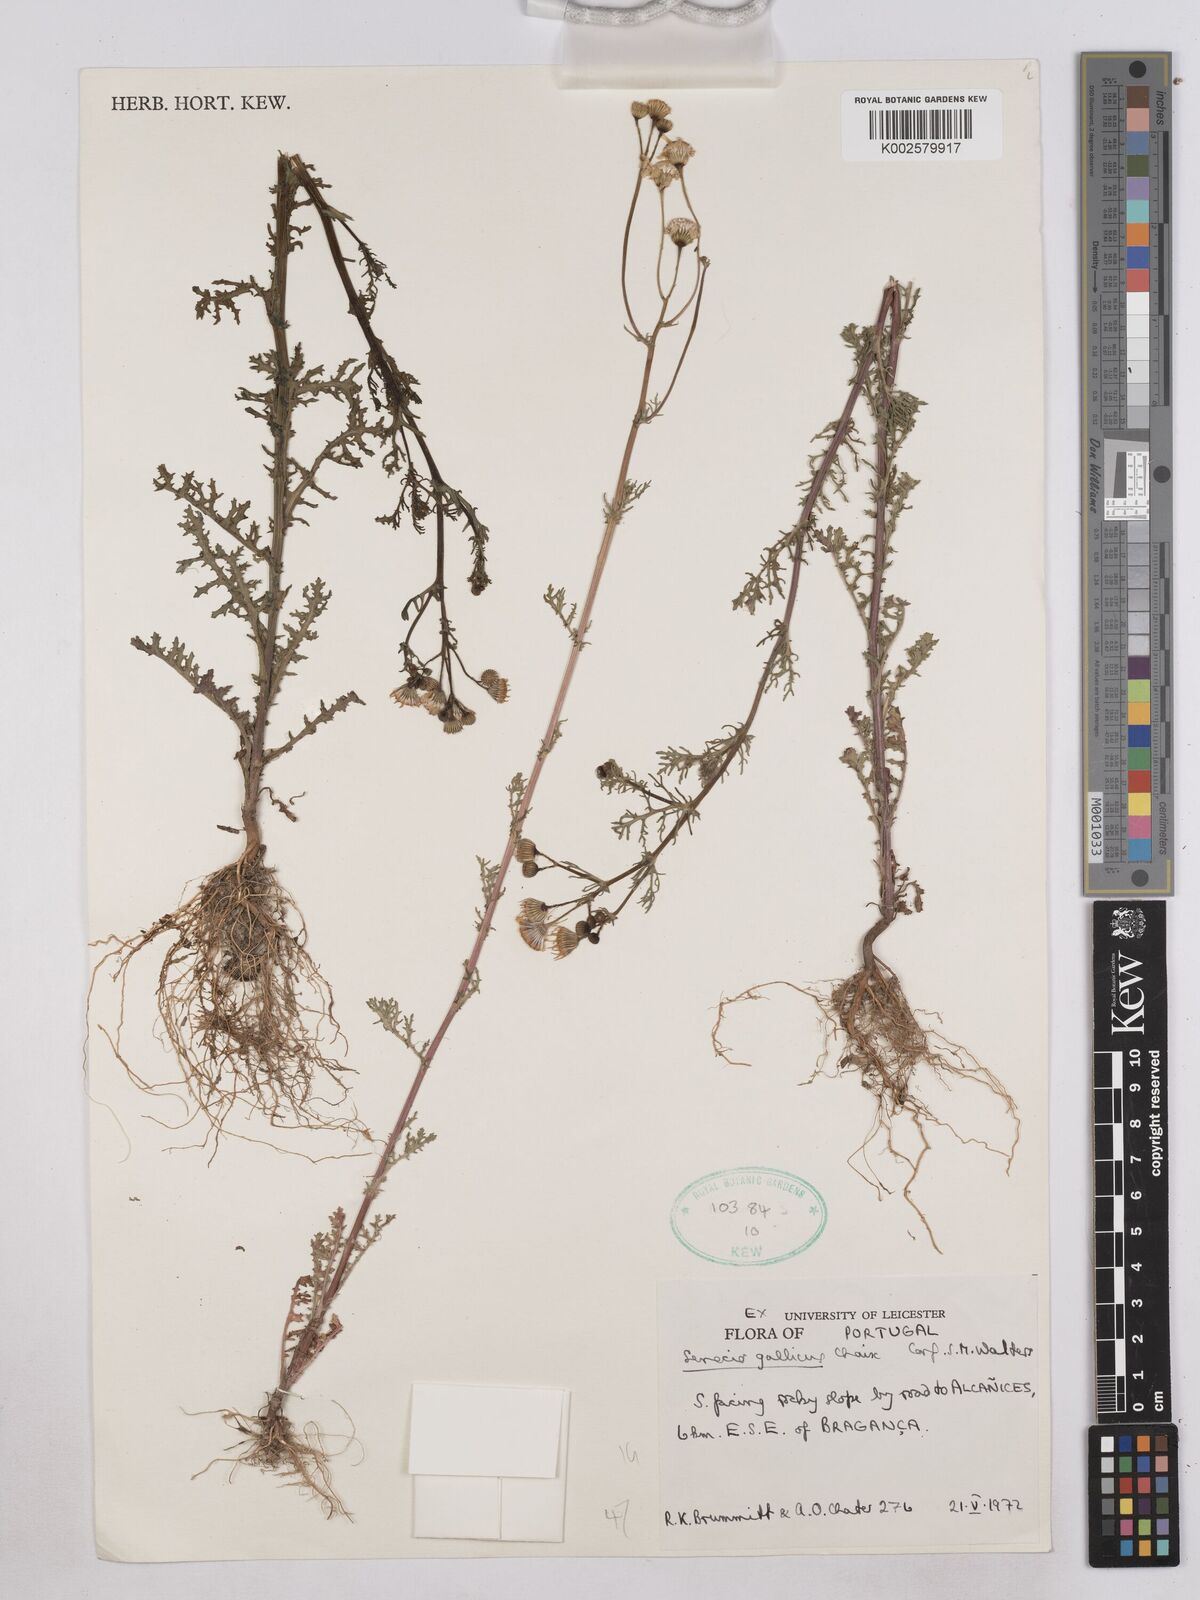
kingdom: Plantae
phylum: Tracheophyta
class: Magnoliopsida
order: Asterales
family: Asteraceae
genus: Senecio
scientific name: Senecio gallicus
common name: French groundsel
